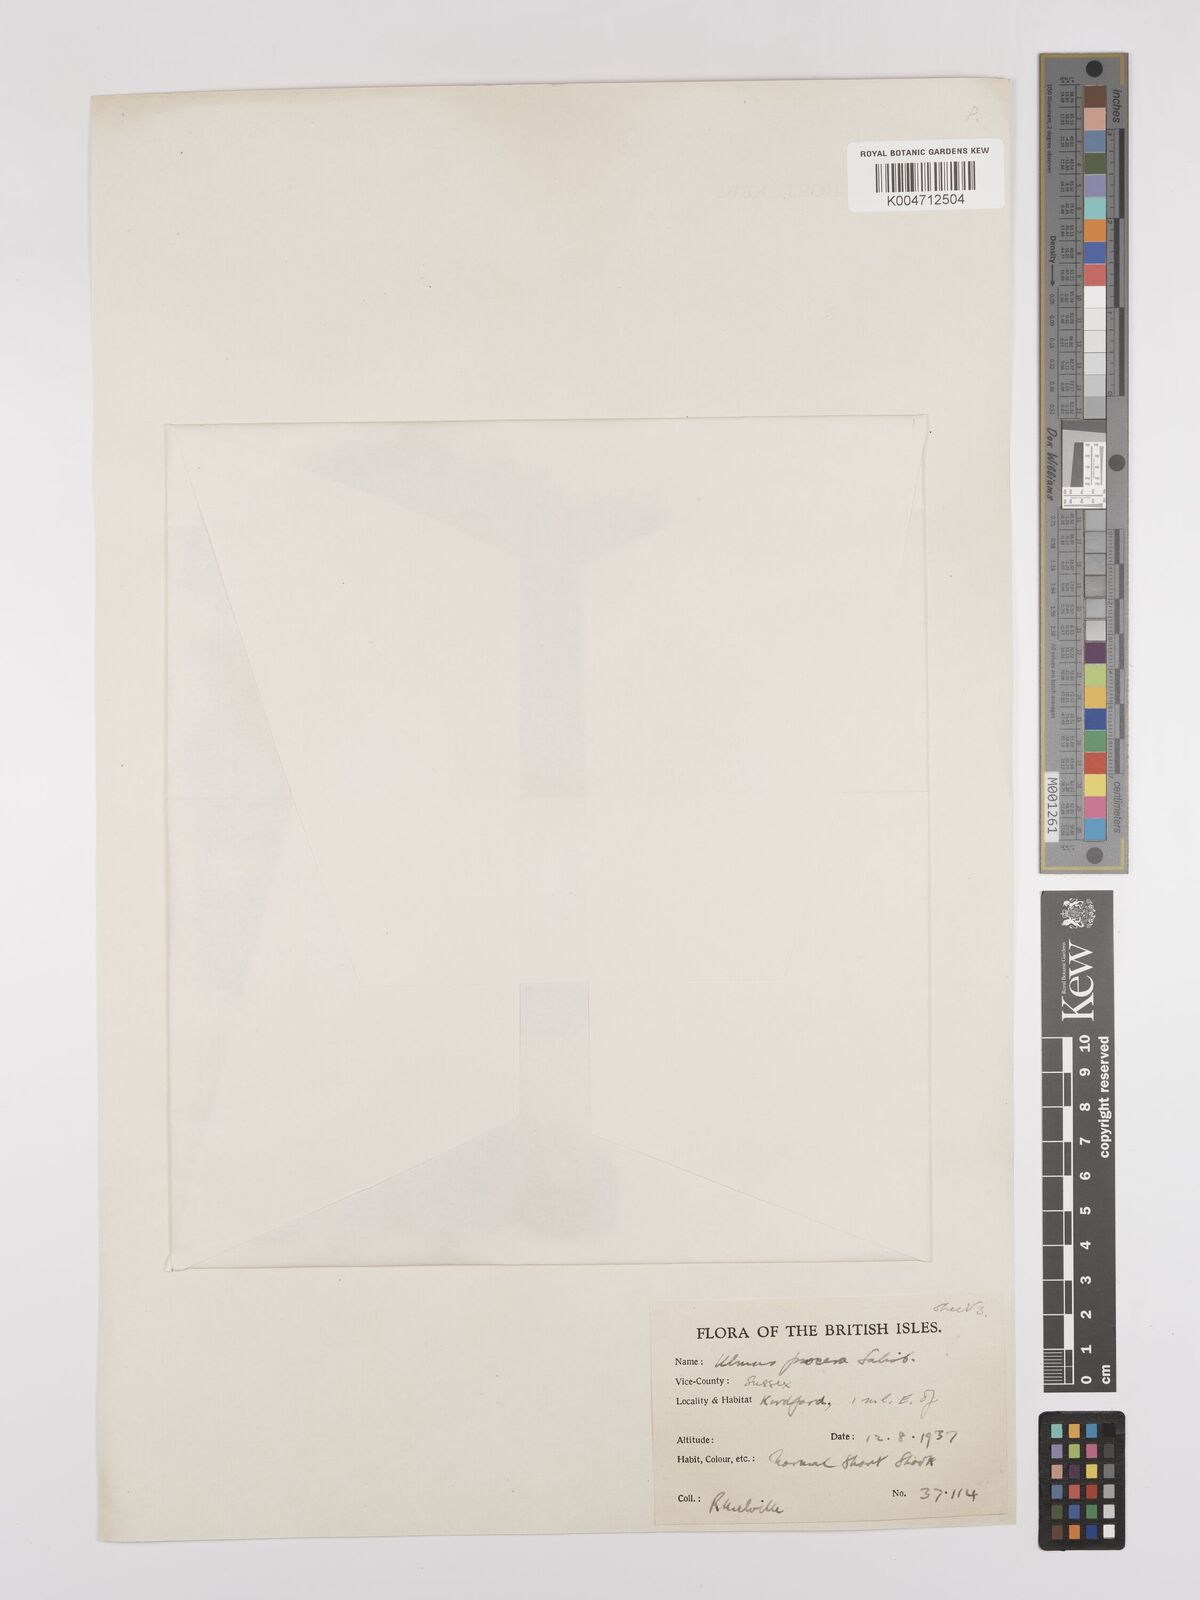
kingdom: Plantae
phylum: Tracheophyta
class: Magnoliopsida
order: Rosales
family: Ulmaceae
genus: Ulmus
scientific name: Ulmus minor
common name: Small-leaved elm
